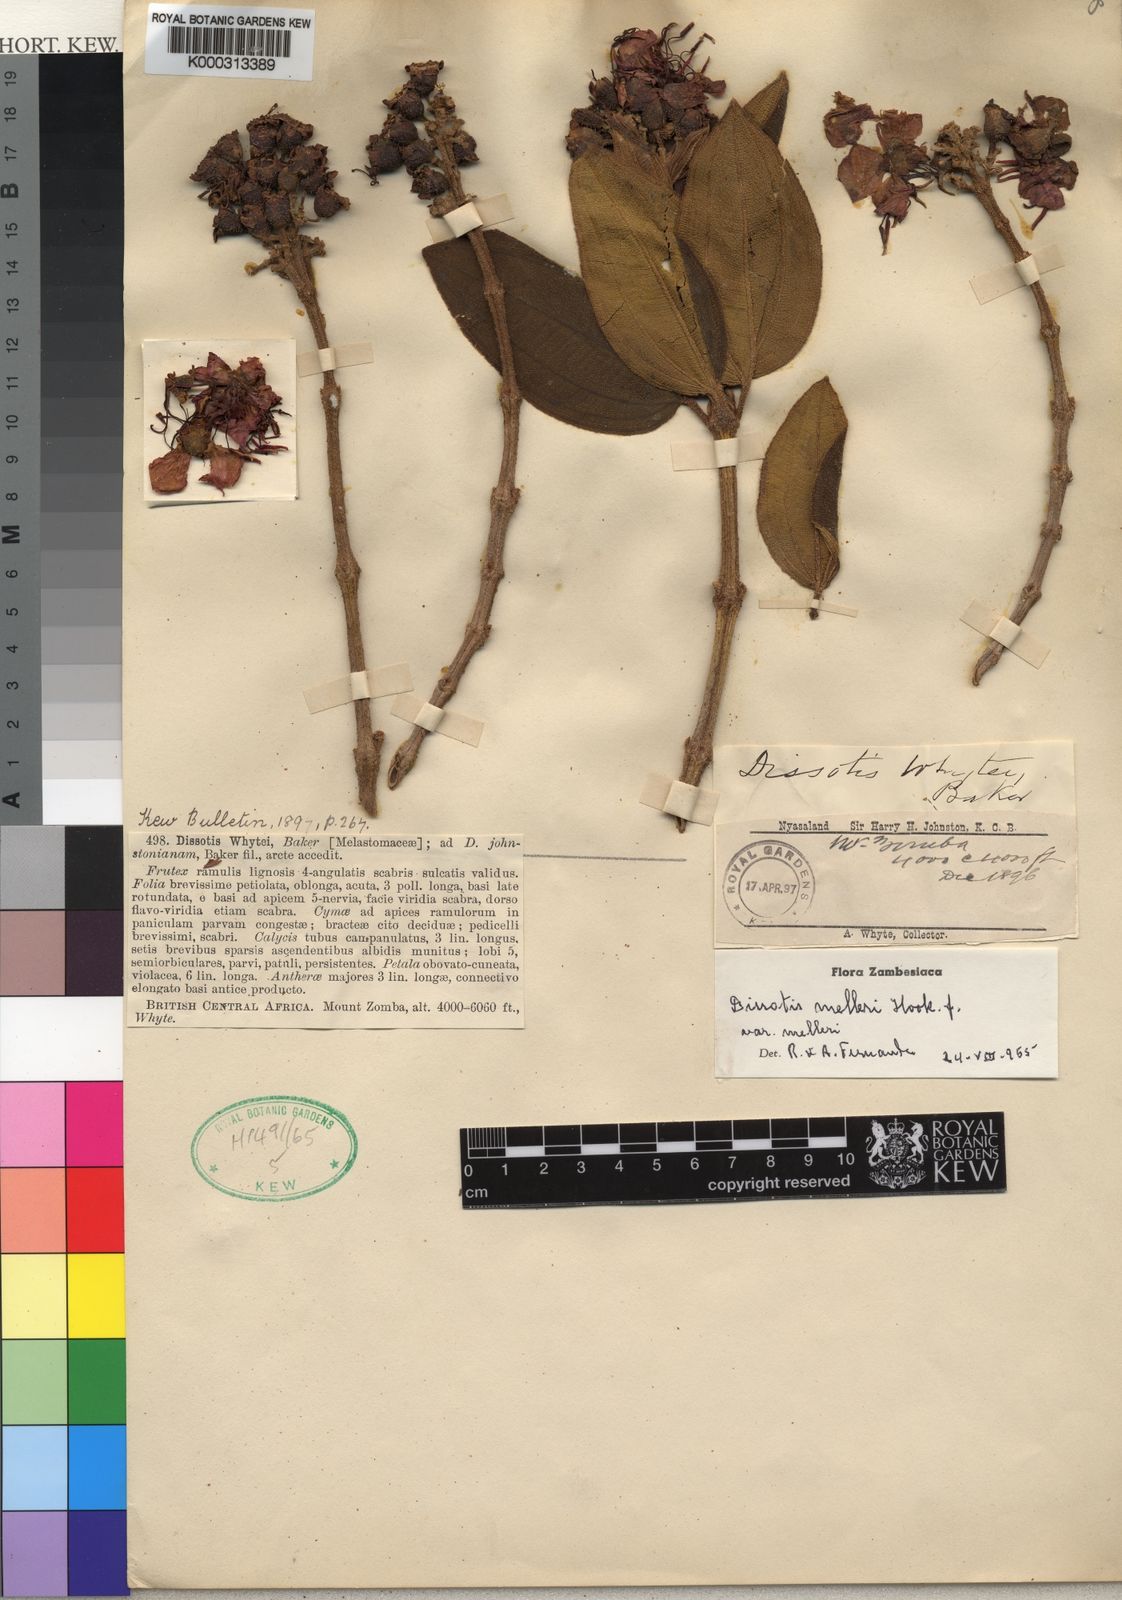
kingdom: Plantae
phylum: Tracheophyta
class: Magnoliopsida
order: Myrtales
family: Melastomataceae
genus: Dissotidendron
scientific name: Dissotidendron melleri
